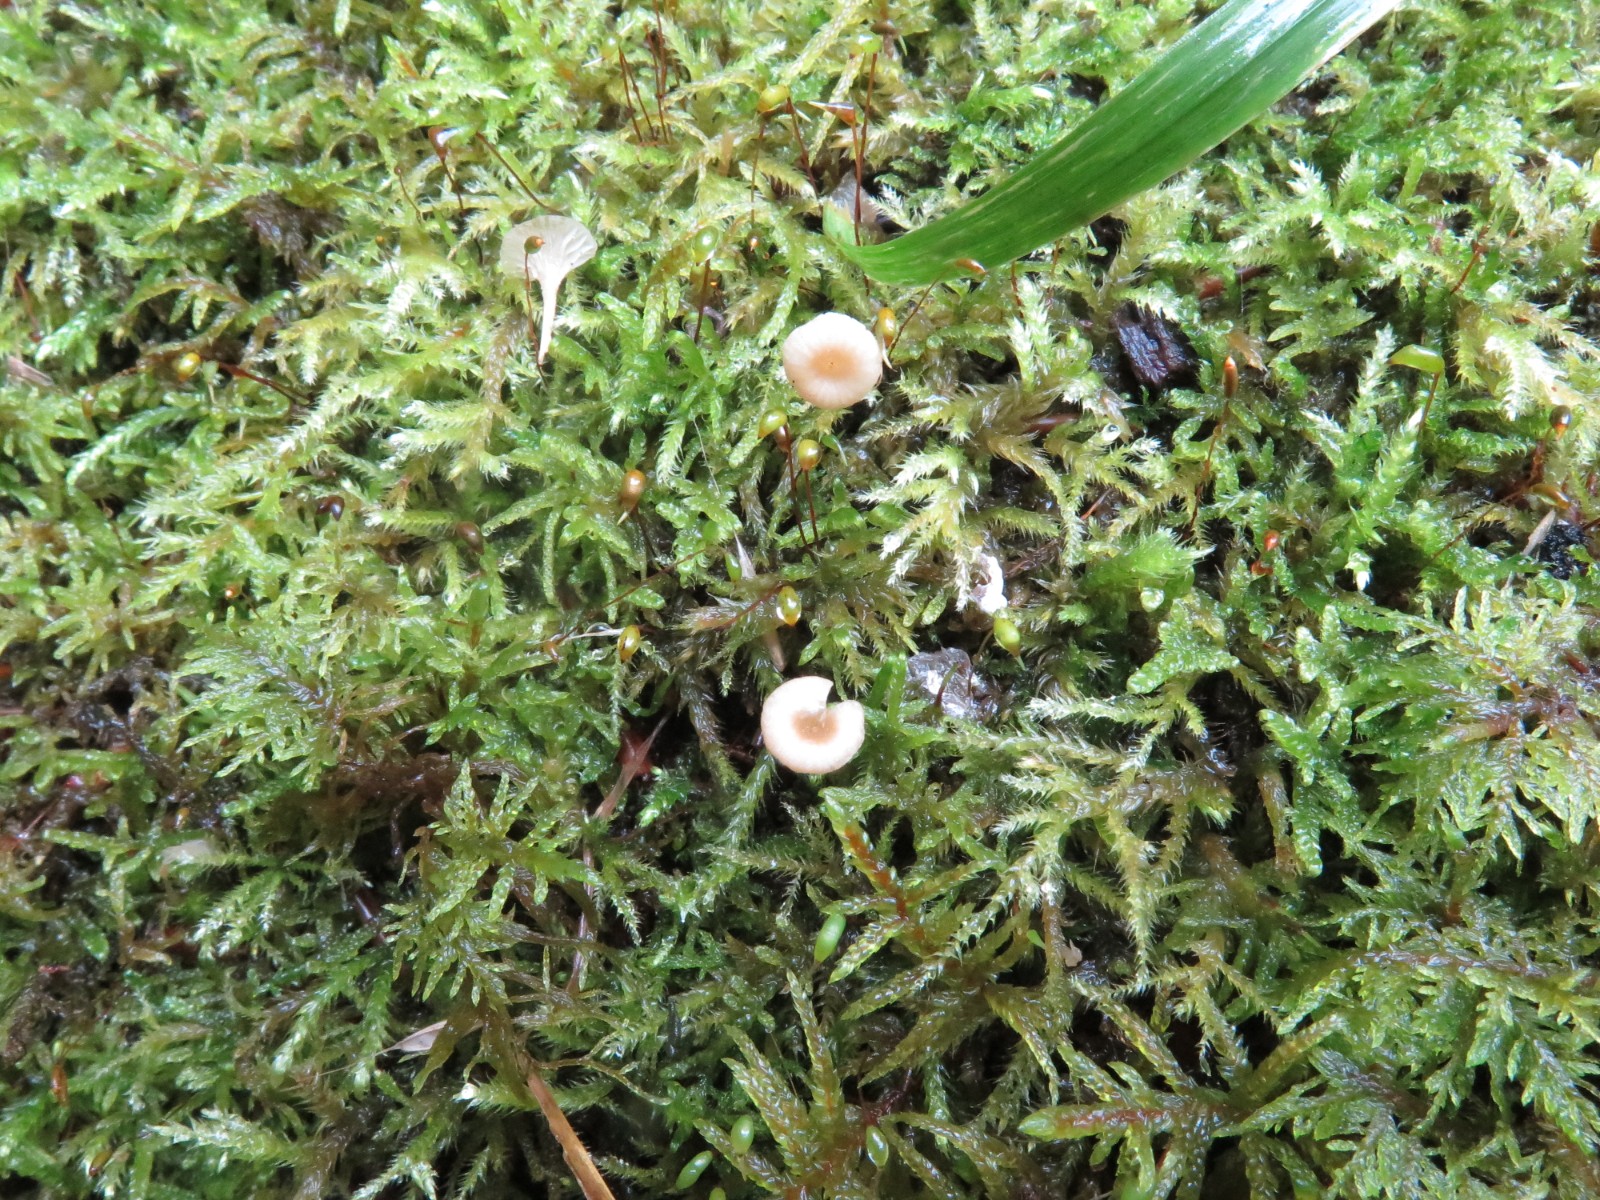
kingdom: Fungi
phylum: Basidiomycota
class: Agaricomycetes
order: Hymenochaetales
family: Rickenellaceae
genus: Rickenella
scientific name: Rickenella swartzii
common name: finstokket mosnavlehat
